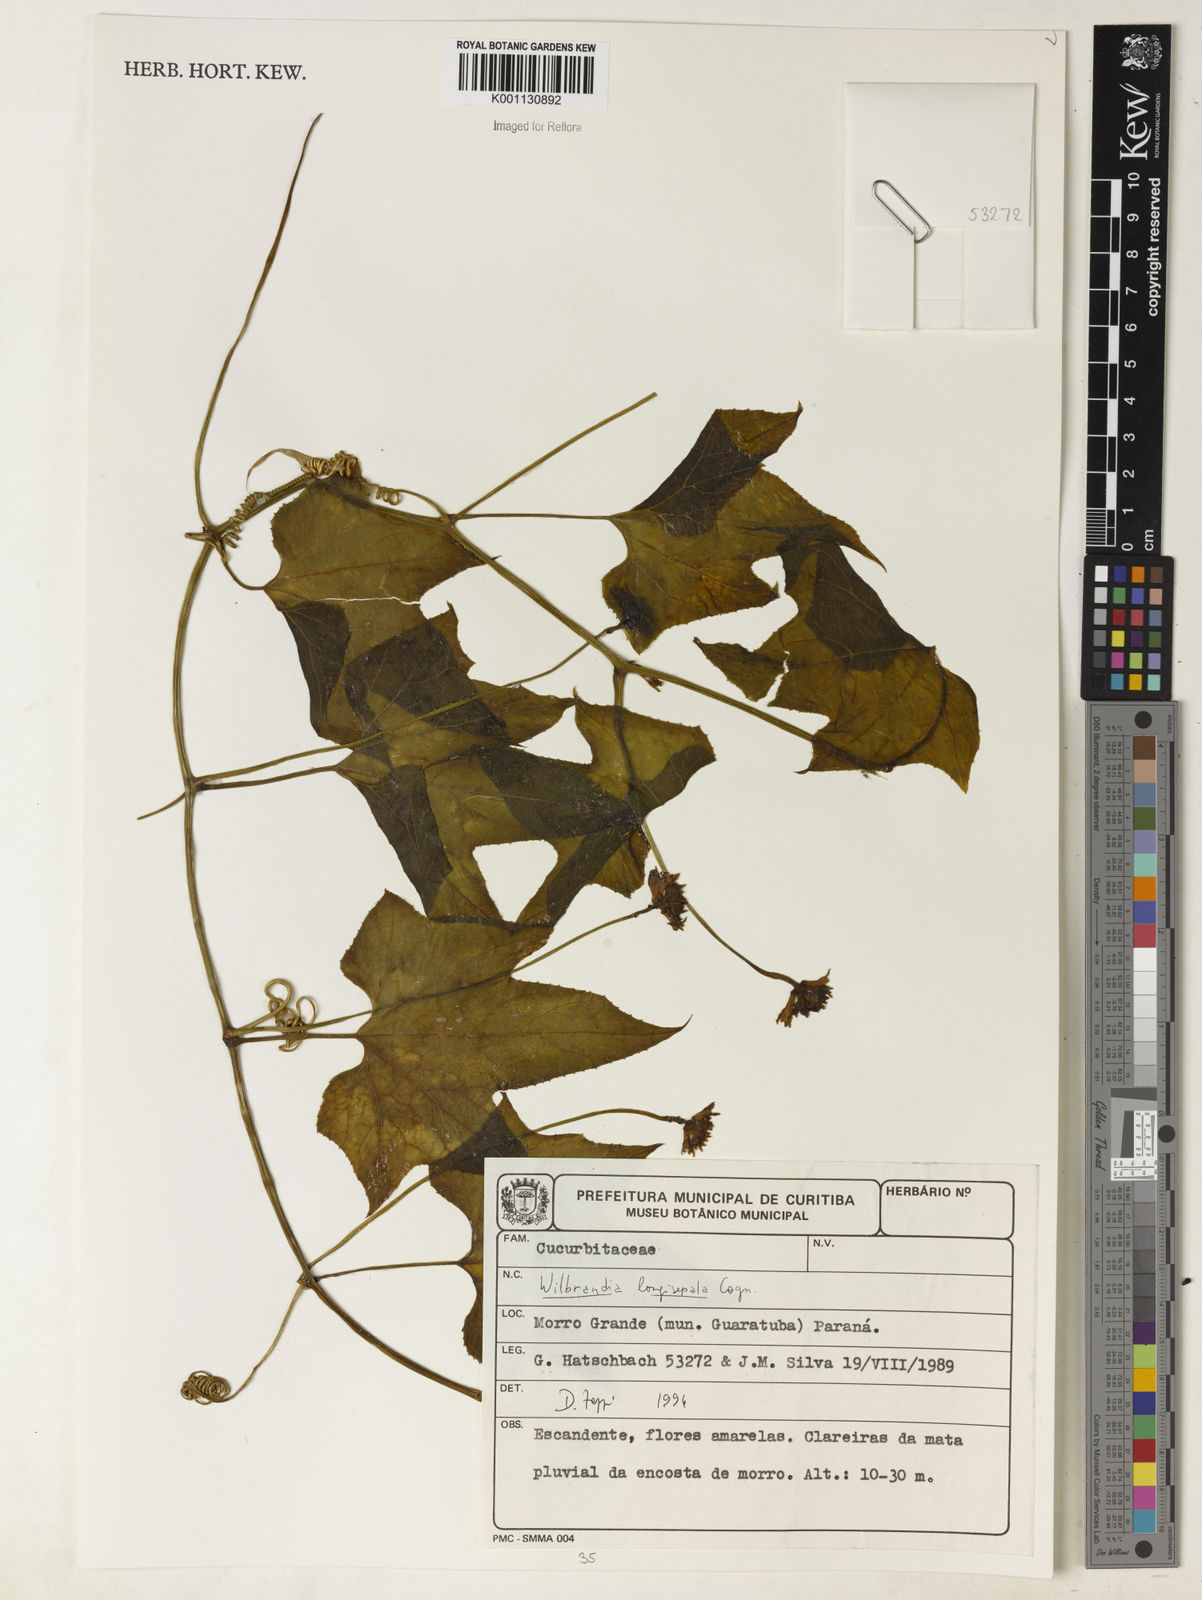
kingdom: Plantae
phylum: Tracheophyta
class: Magnoliopsida
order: Cucurbitales
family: Cucurbitaceae
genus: Wilbrandia
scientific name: Wilbrandia longisepala
